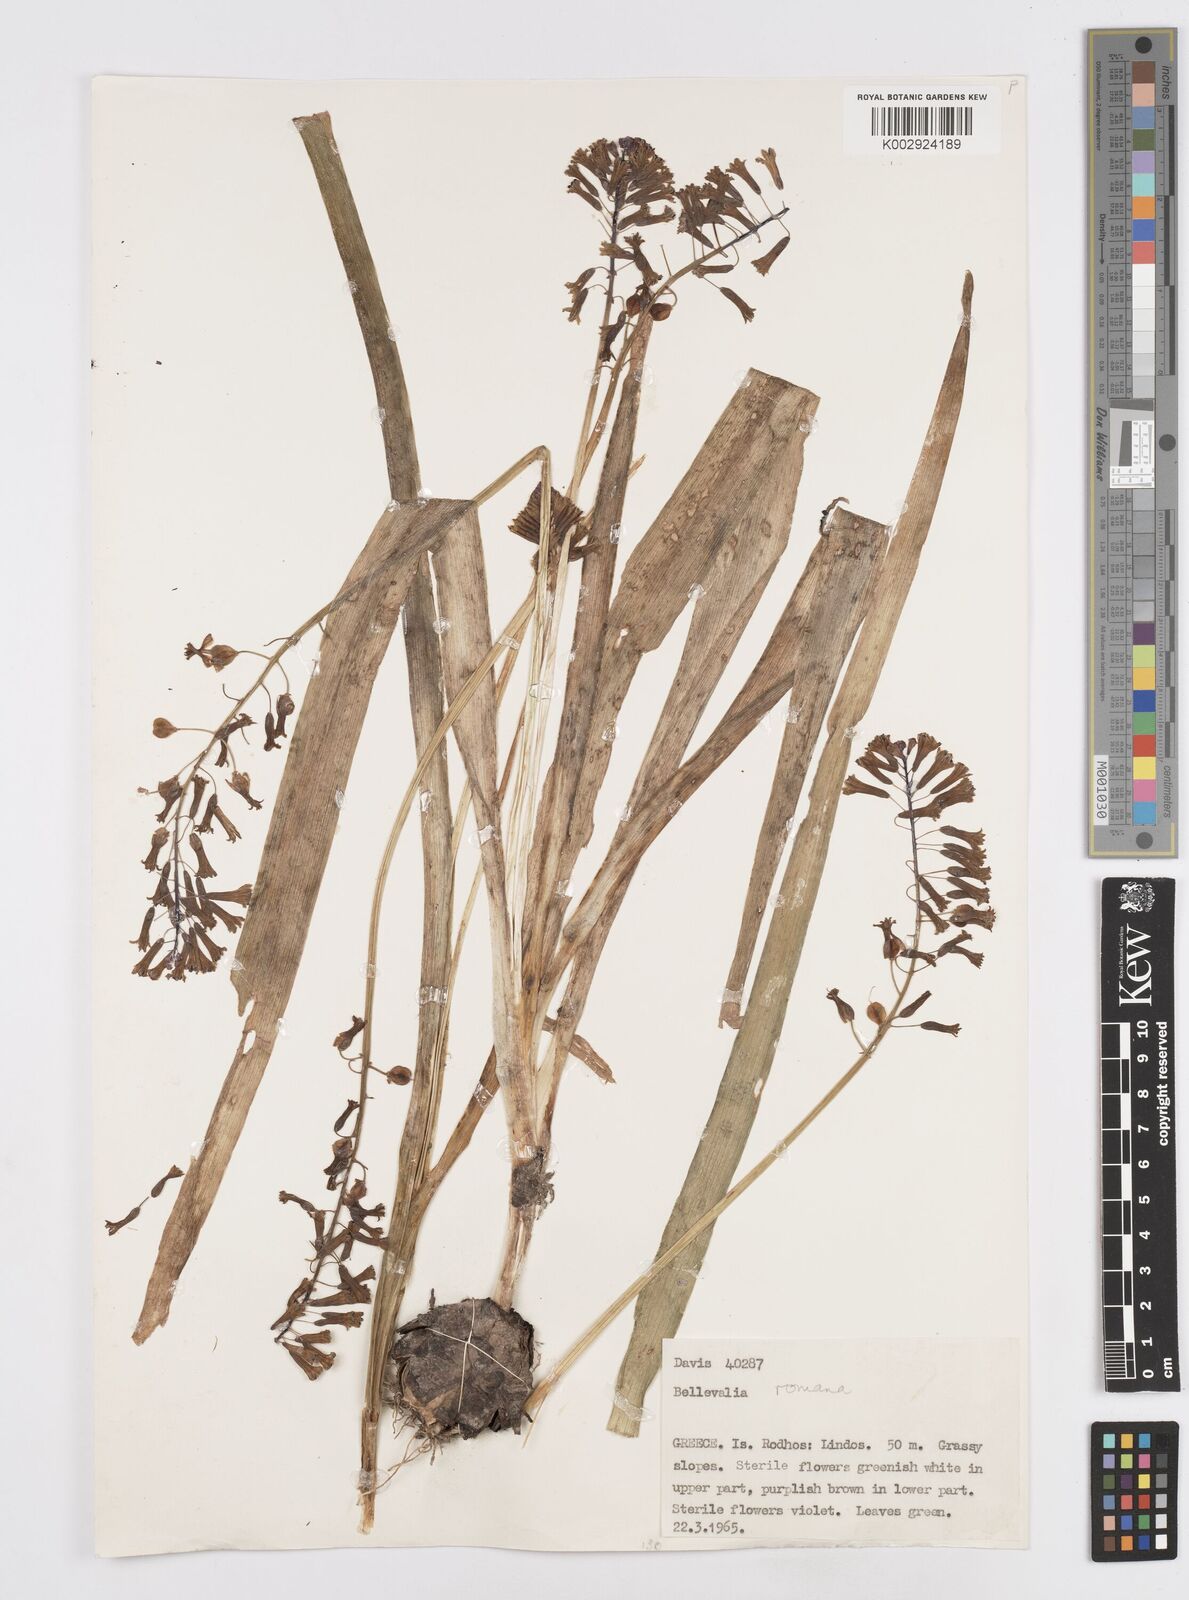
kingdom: Plantae
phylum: Tracheophyta
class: Liliopsida
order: Asparagales
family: Asparagaceae
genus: Bellevalia
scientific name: Bellevalia
